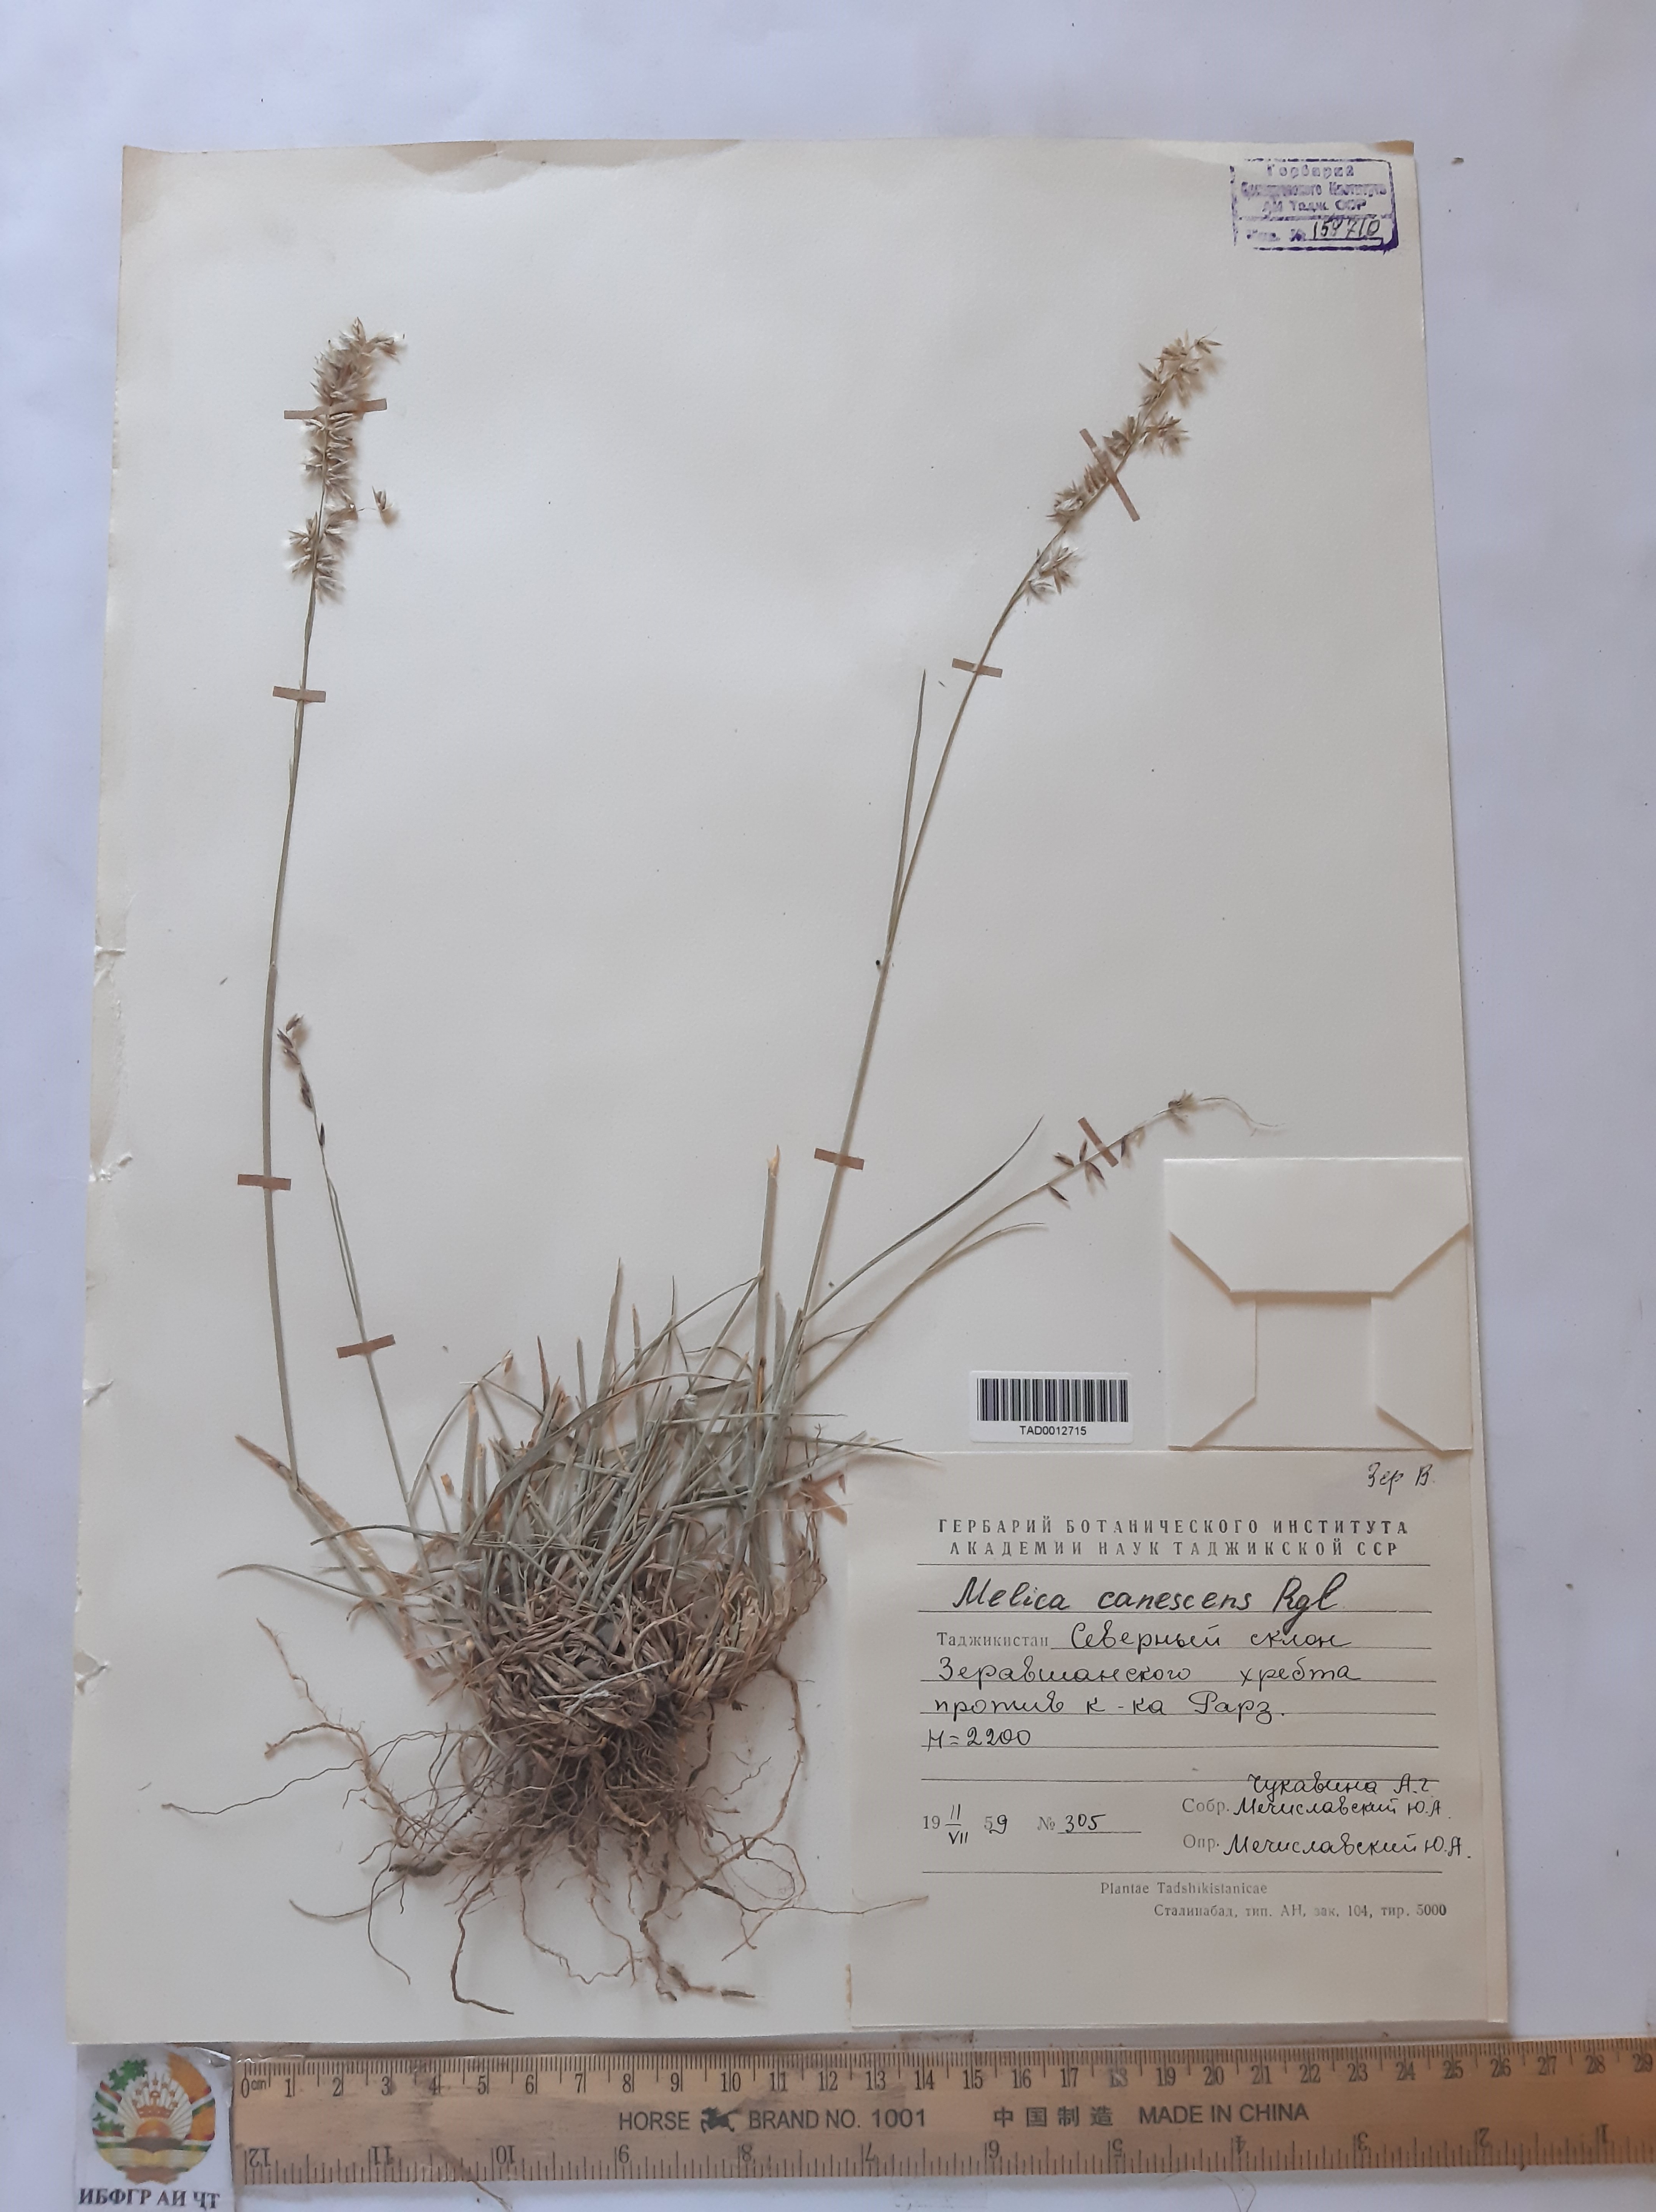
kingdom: Plantae
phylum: Tracheophyta
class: Liliopsida
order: Poales
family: Poaceae
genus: Melica
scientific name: Melica persica
